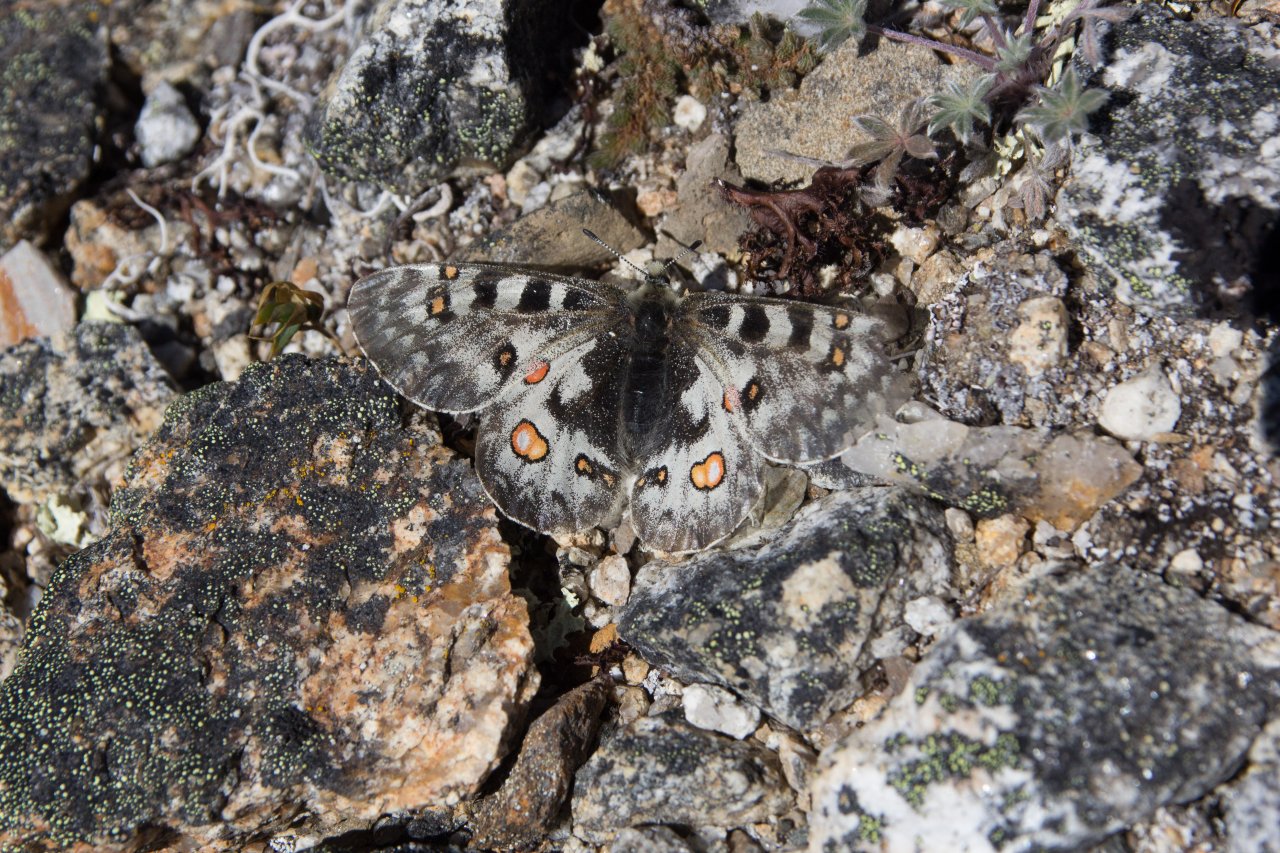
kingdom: Animalia
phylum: Arthropoda
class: Insecta
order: Lepidoptera
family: Papilionidae
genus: Parnassius
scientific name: Parnassius smintheus
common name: Rocky Mountain Parnassian
